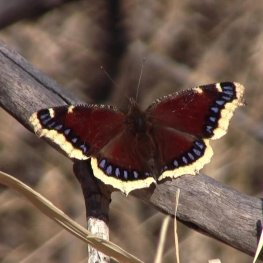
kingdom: Animalia
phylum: Arthropoda
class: Insecta
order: Lepidoptera
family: Nymphalidae
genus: Nymphalis
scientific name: Nymphalis antiopa
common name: Mourning Cloak
